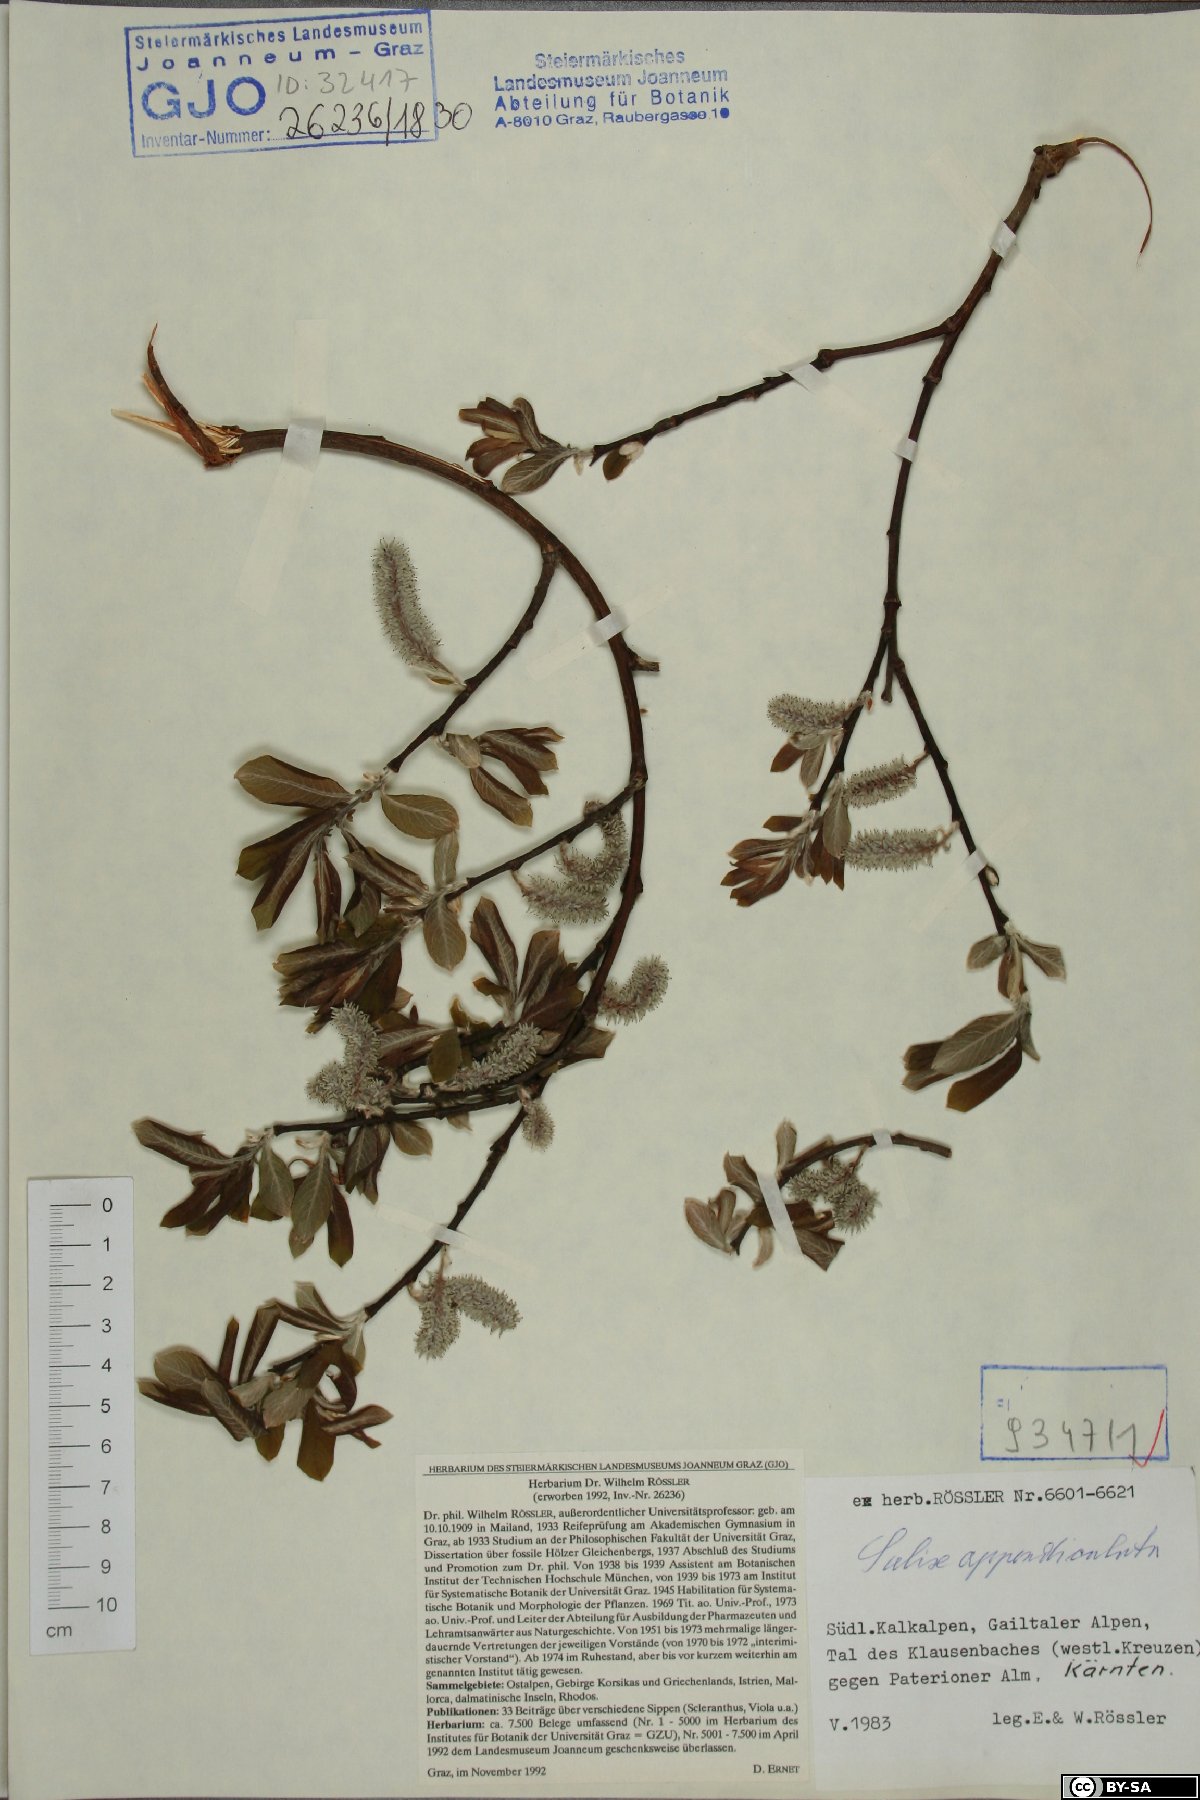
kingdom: Plantae
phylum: Tracheophyta
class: Magnoliopsida
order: Malpighiales
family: Salicaceae
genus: Salix
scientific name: Salix appendiculata
